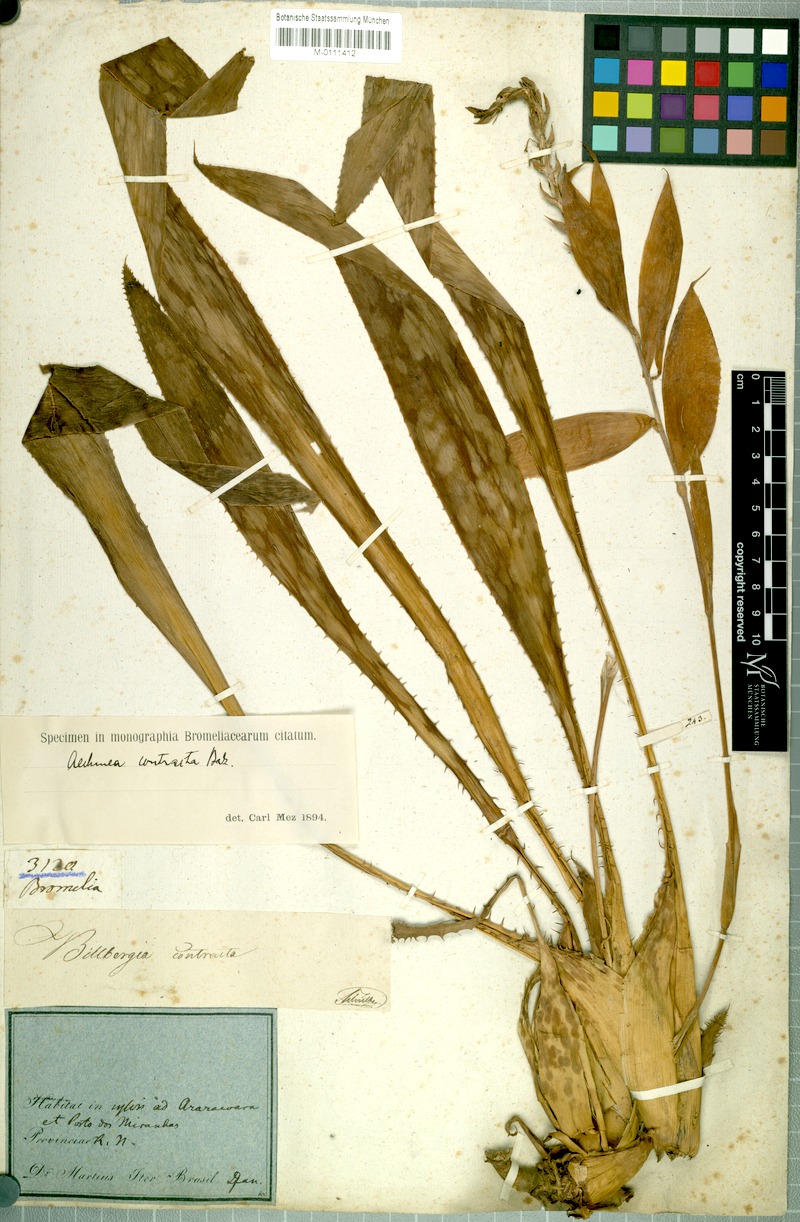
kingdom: Plantae
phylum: Tracheophyta
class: Liliopsida
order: Poales
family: Bromeliaceae
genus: Aechmea
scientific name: Aechmea contracta
